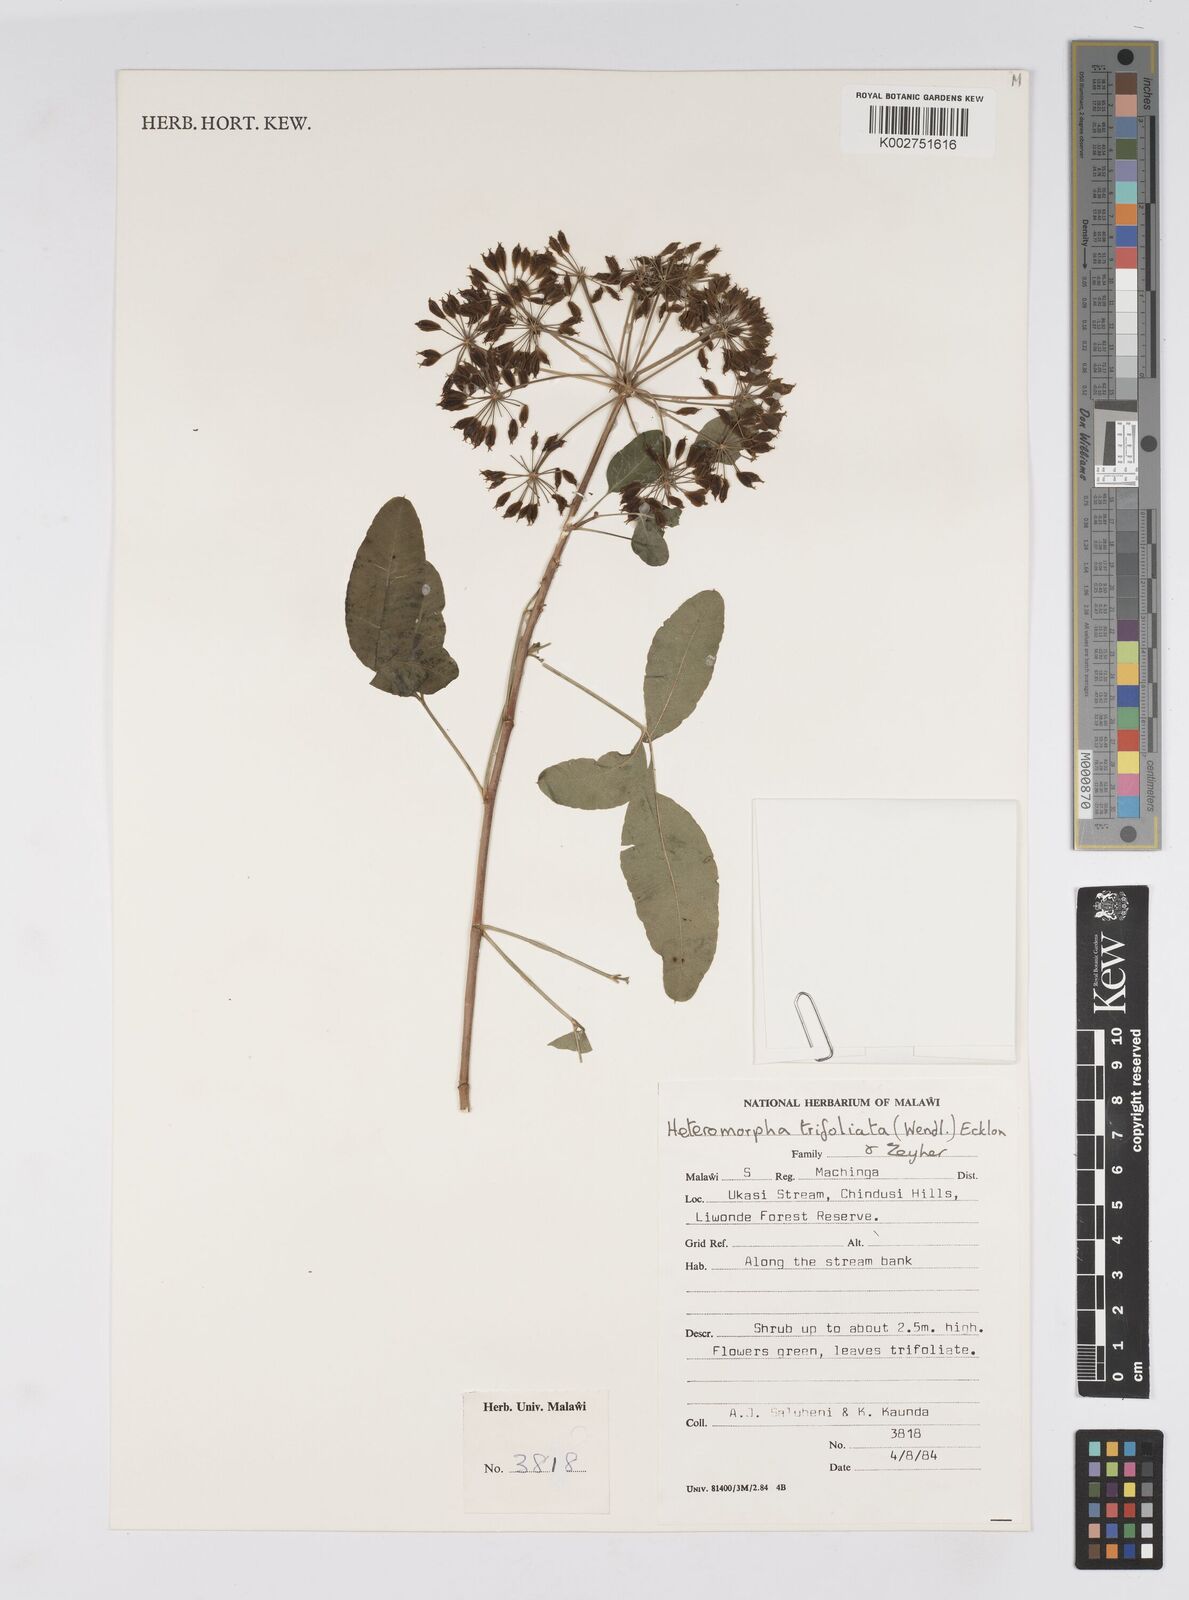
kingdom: Plantae
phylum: Tracheophyta
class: Magnoliopsida
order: Apiales
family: Apiaceae
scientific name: Apiaceae
